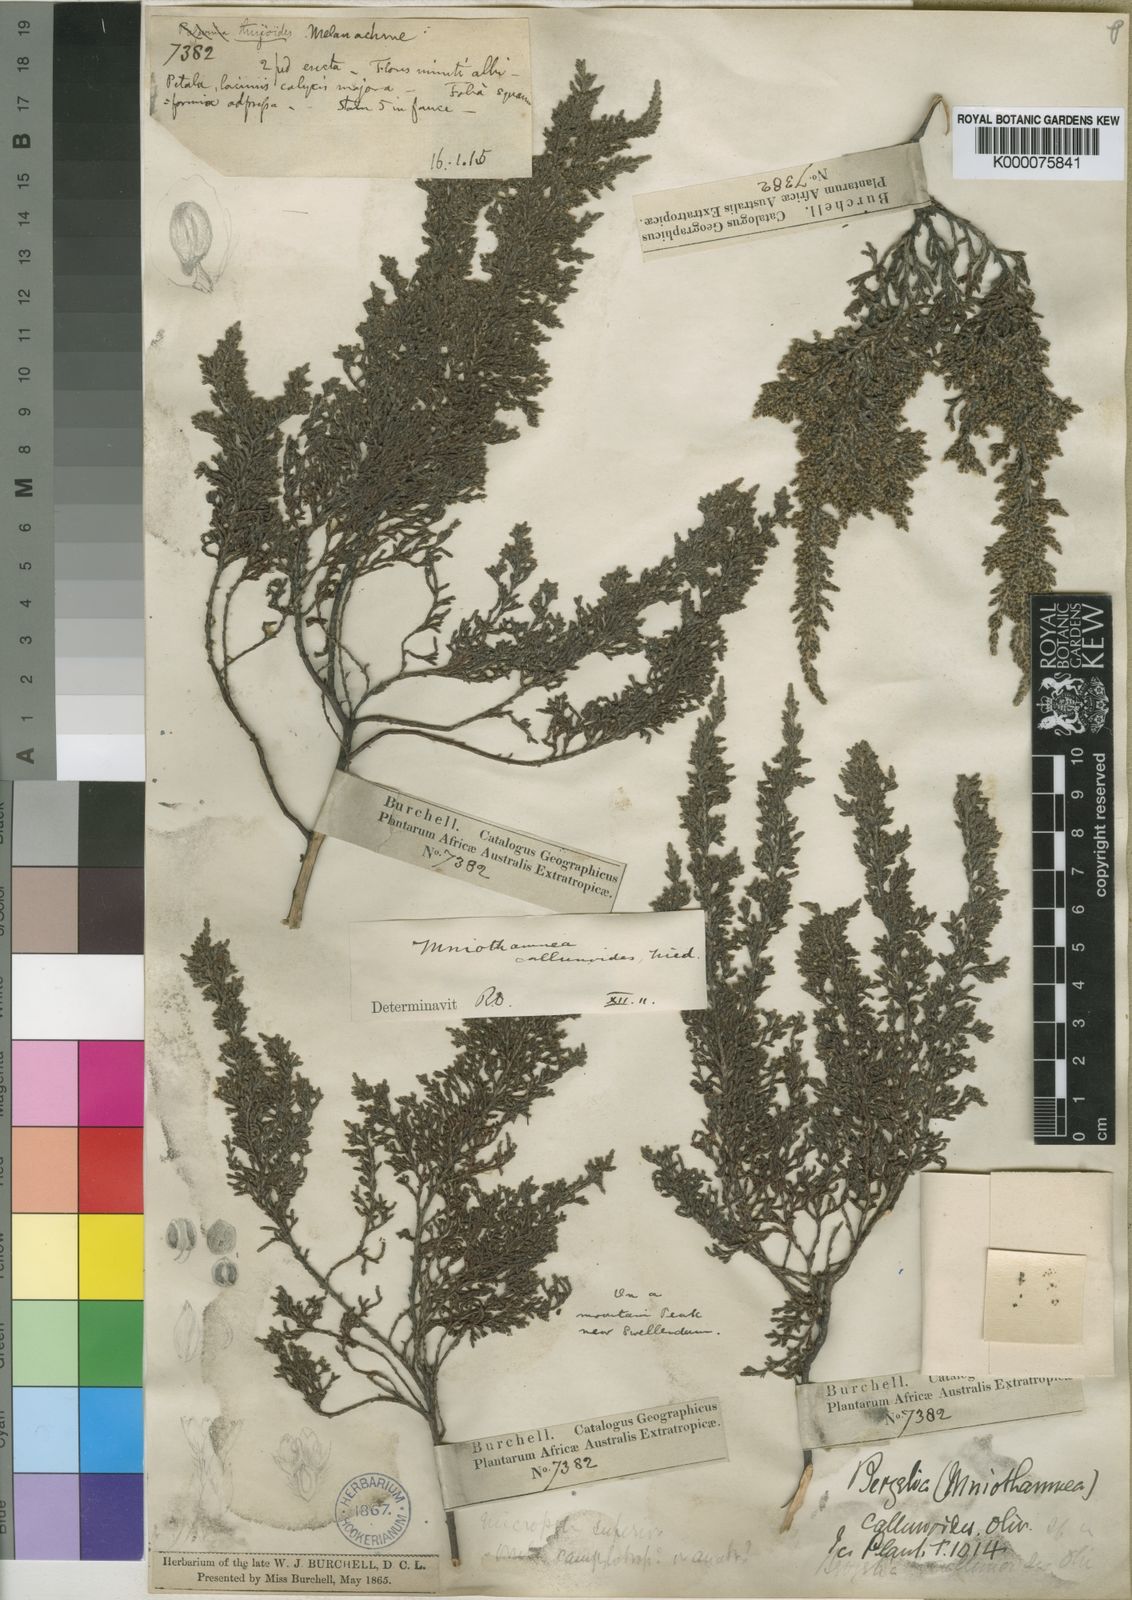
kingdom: Plantae
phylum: Tracheophyta
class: Magnoliopsida
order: Bruniales
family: Bruniaceae
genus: Brunia
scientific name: Brunia
